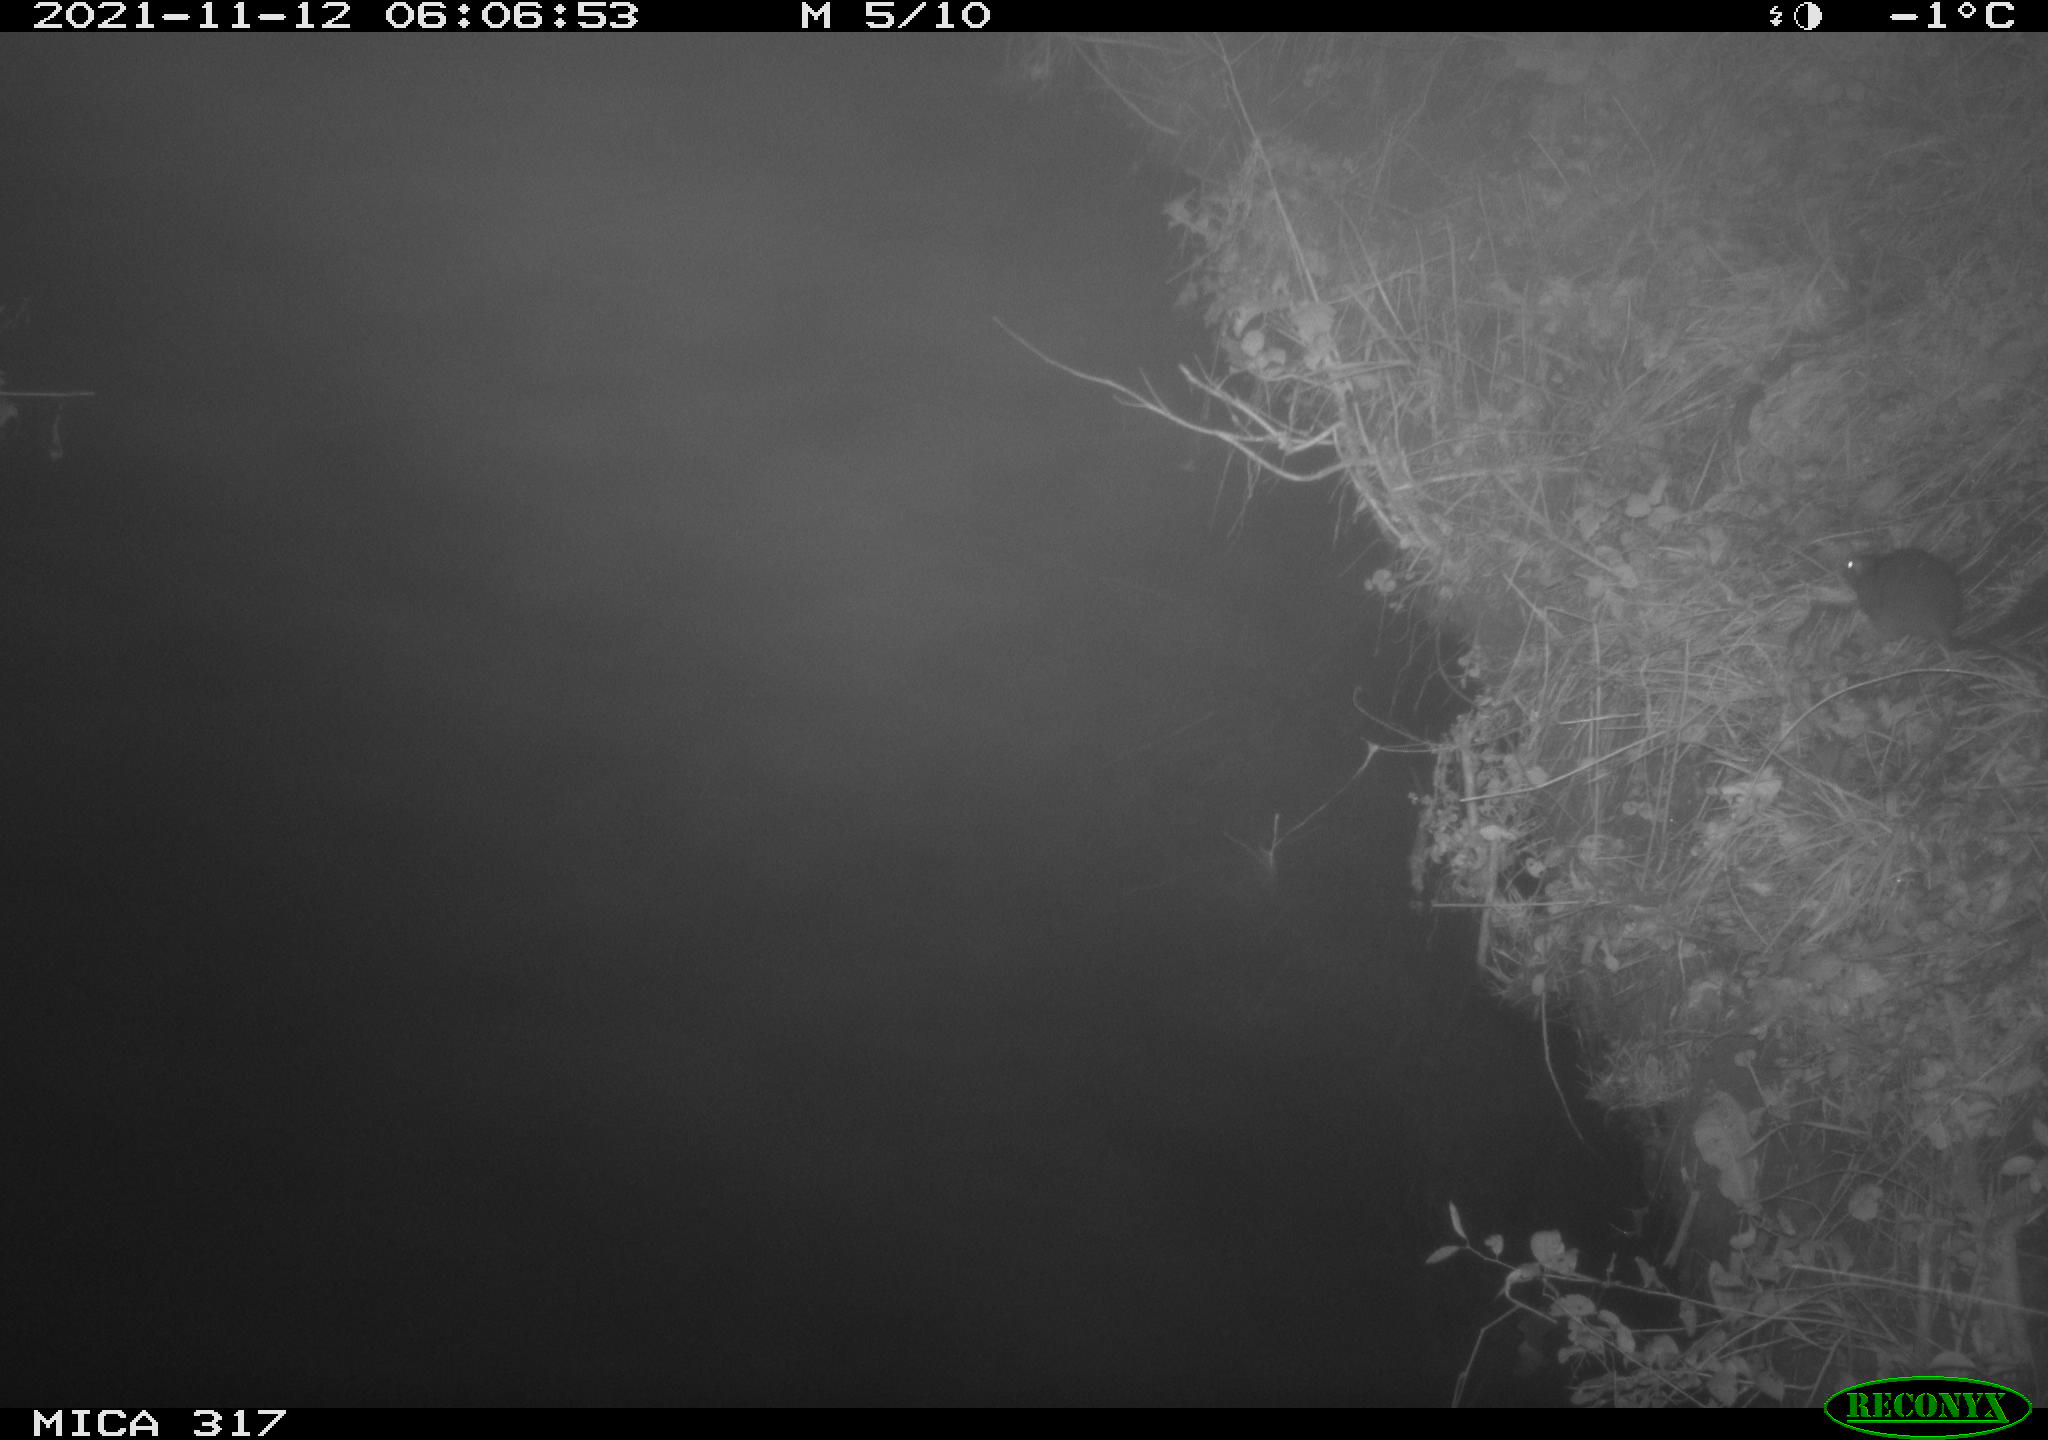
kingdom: Animalia
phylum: Chordata
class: Mammalia
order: Rodentia
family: Muridae
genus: Rattus
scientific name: Rattus norvegicus
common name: Brown rat
